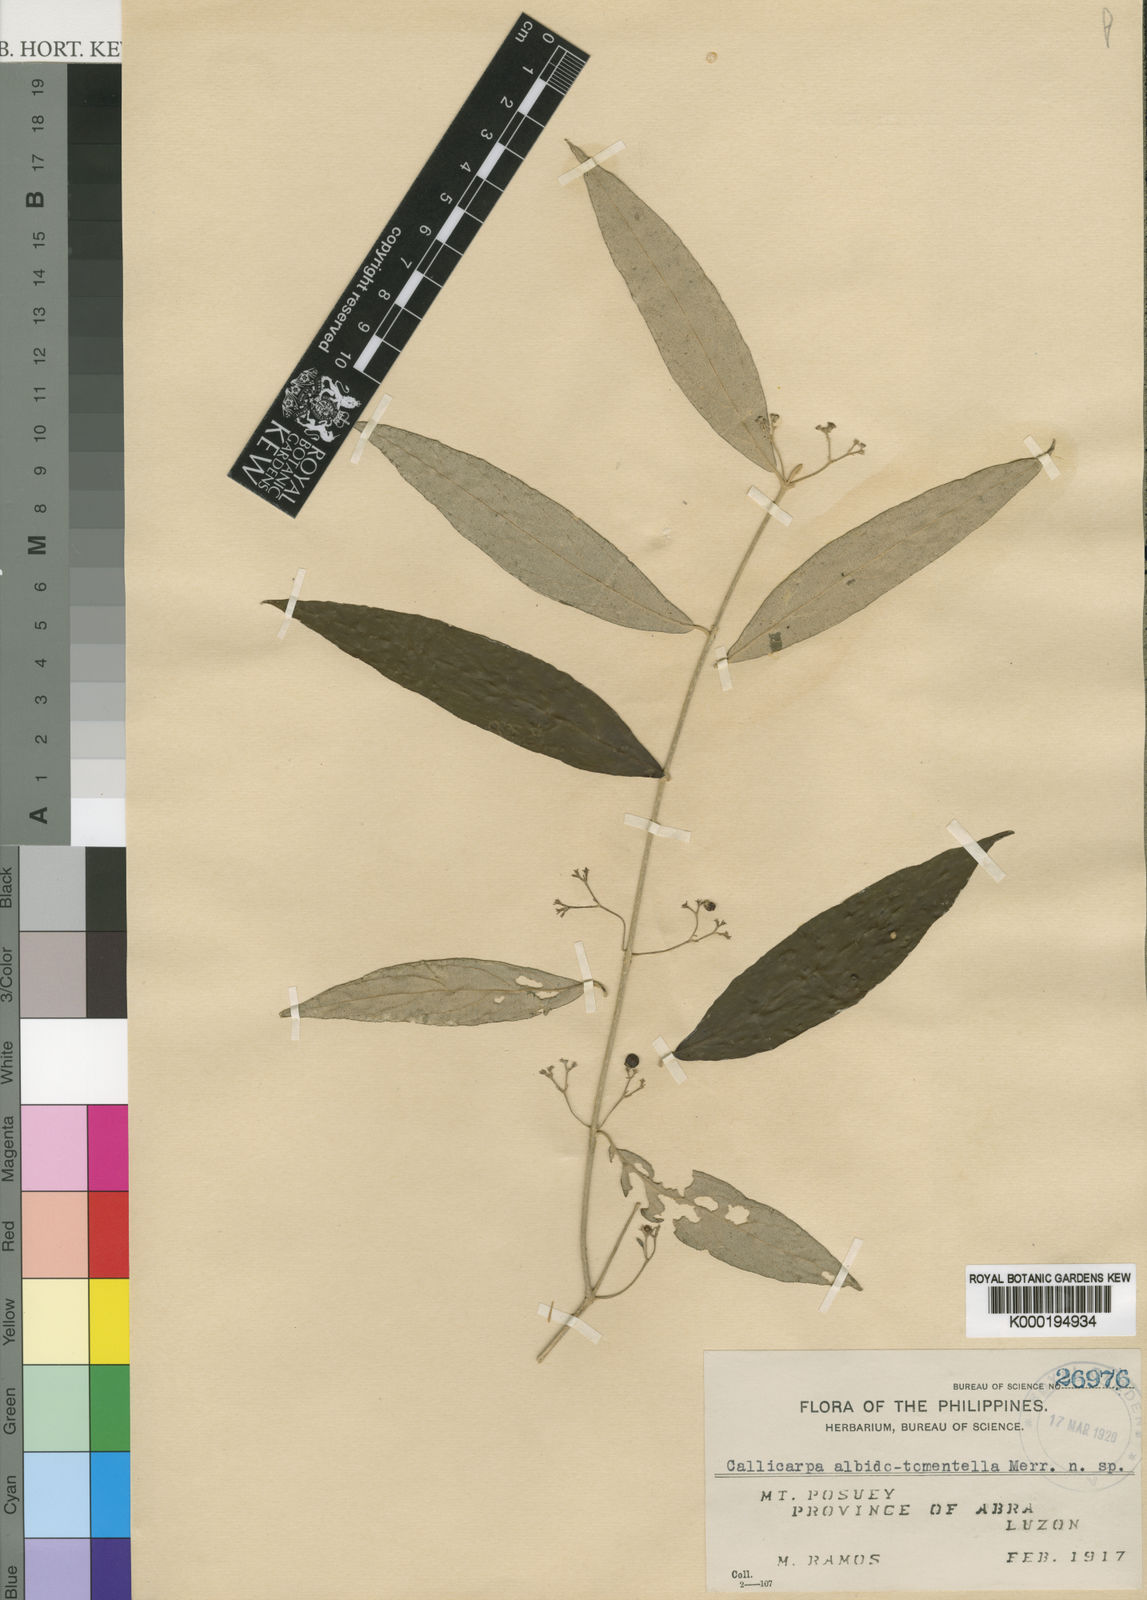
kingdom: Plantae
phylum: Tracheophyta
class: Magnoliopsida
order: Lamiales
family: Lamiaceae
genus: Callicarpa
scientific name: Callicarpa albidotomentella
